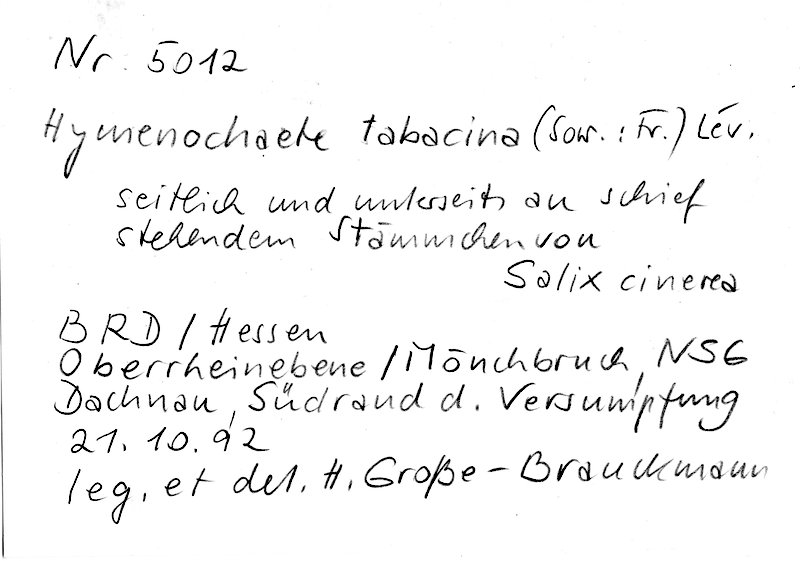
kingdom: Plantae
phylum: Tracheophyta
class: Magnoliopsida
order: Malpighiales
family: Salicaceae
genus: Salix
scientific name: Salix cinerea
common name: Common sallow
